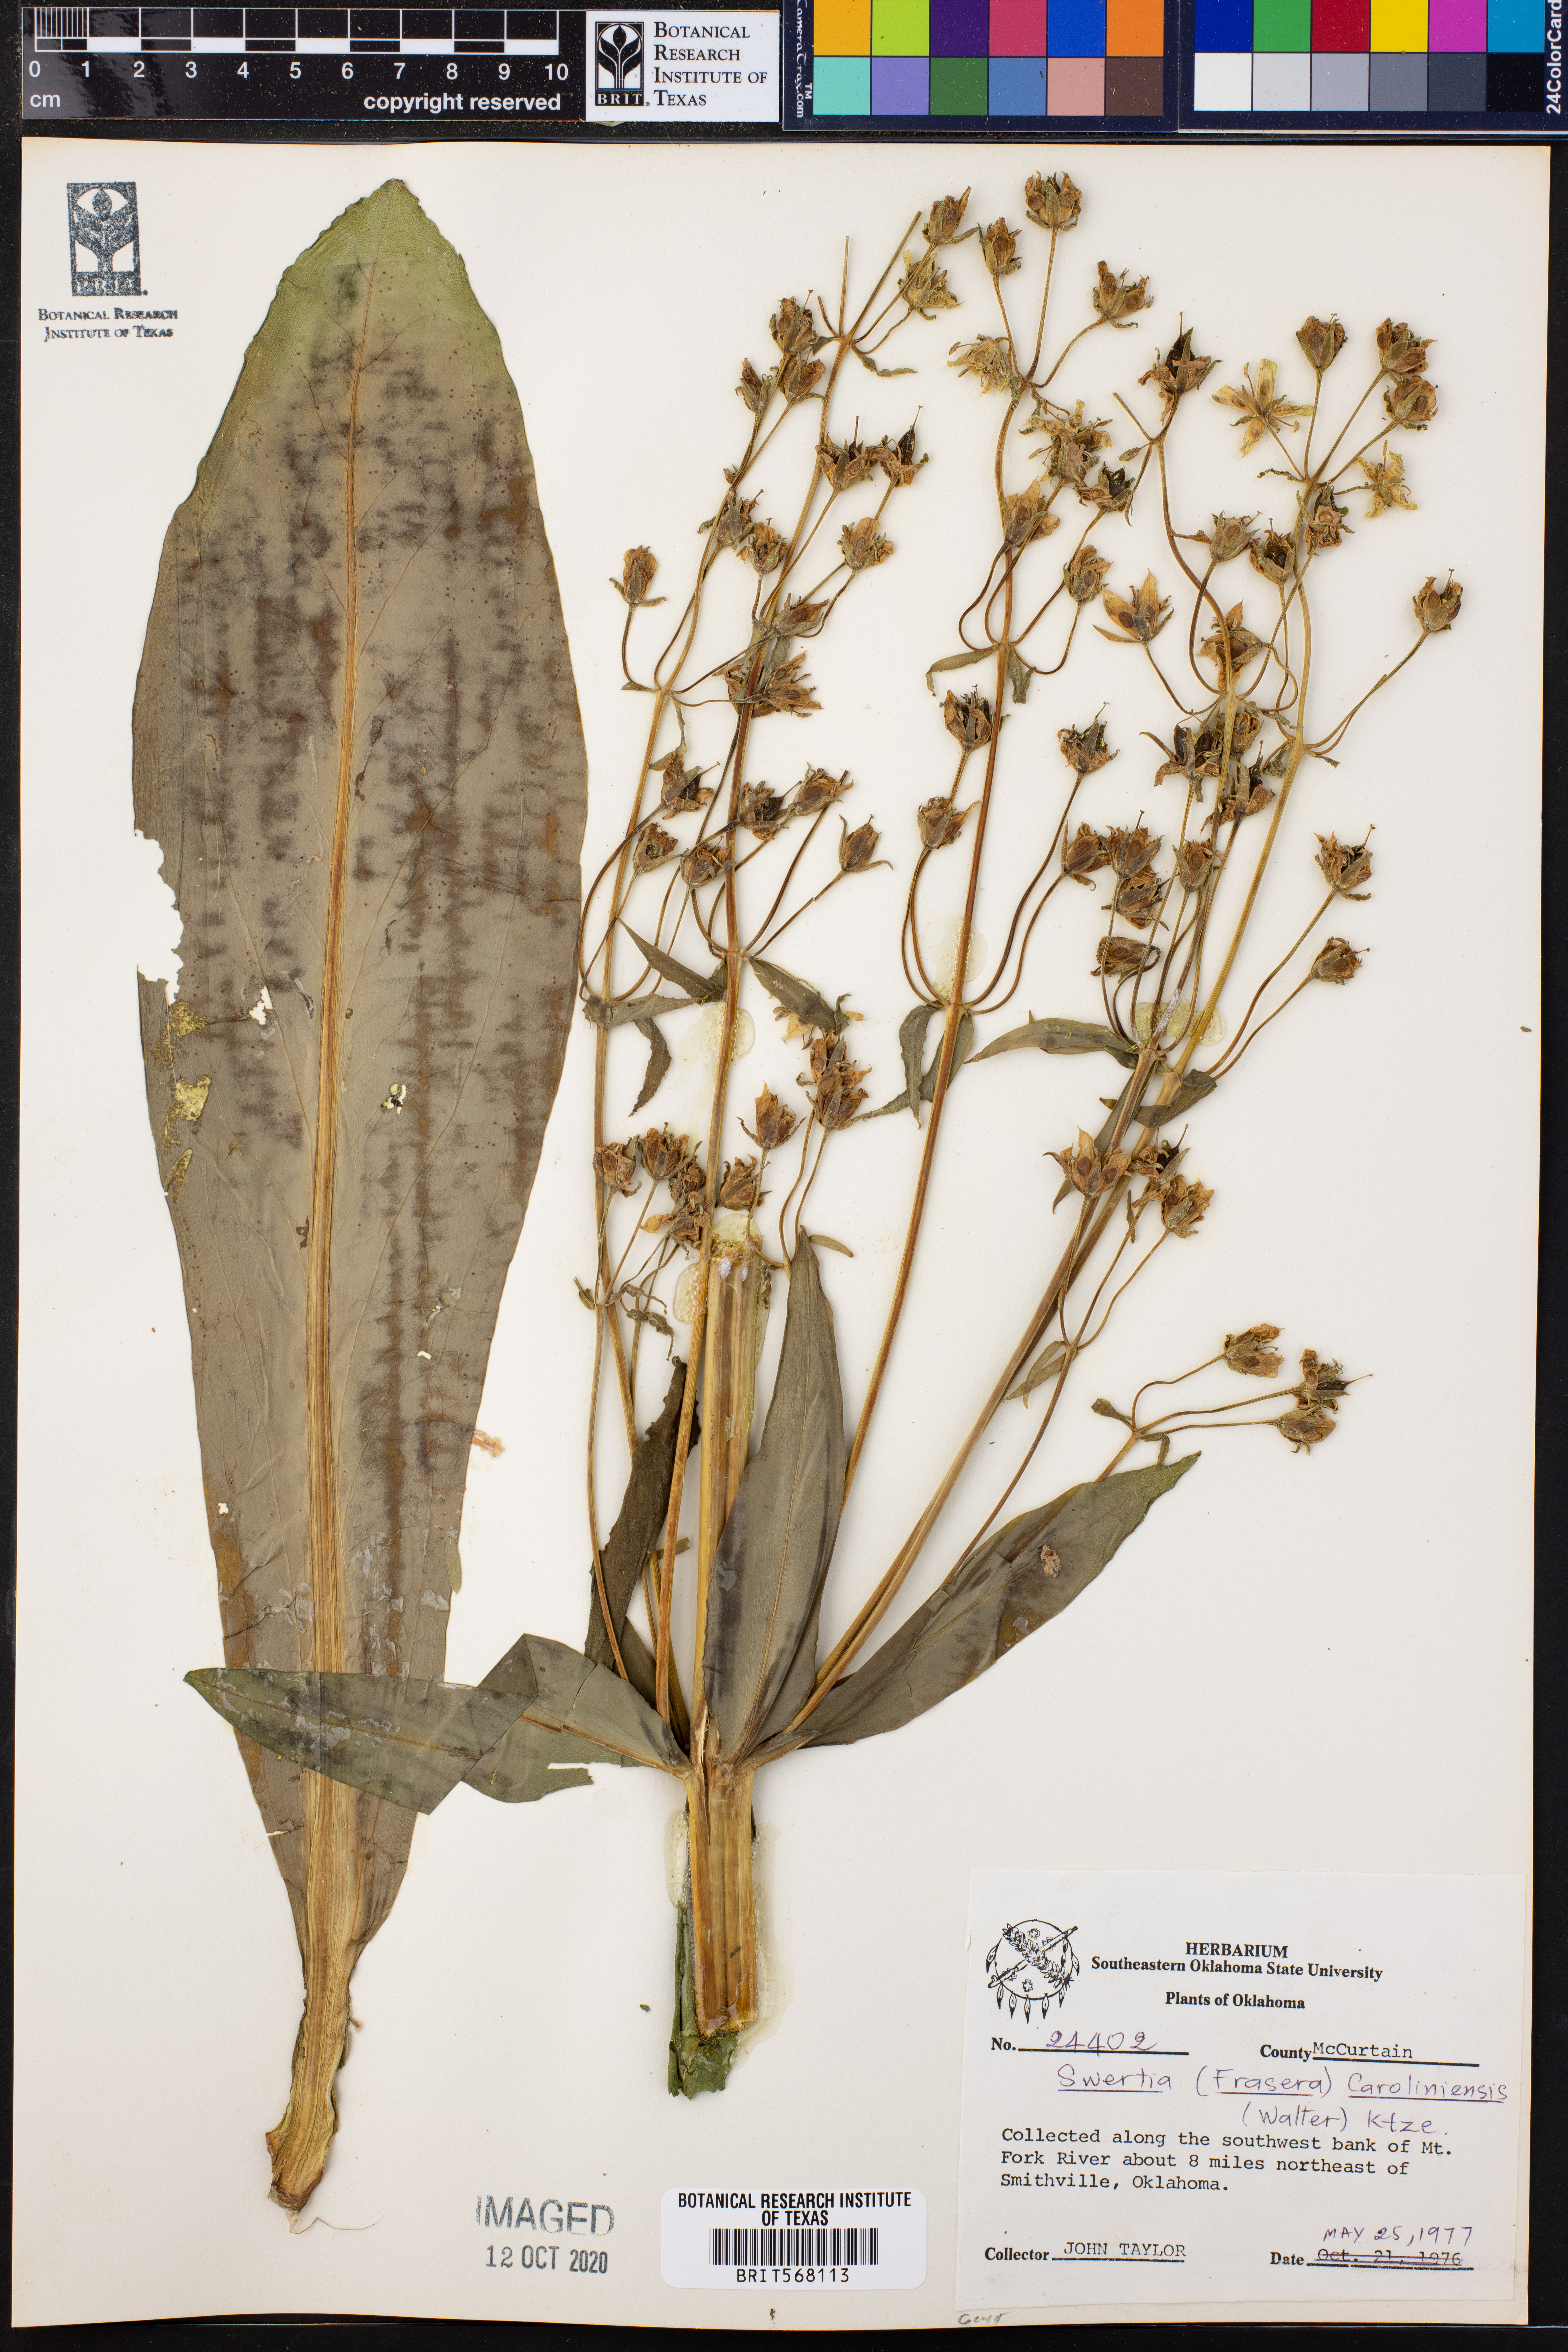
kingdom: Plantae
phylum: Tracheophyta
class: Magnoliopsida
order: Gentianales
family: Gentianaceae
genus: Frasera
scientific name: Frasera carolinensis
